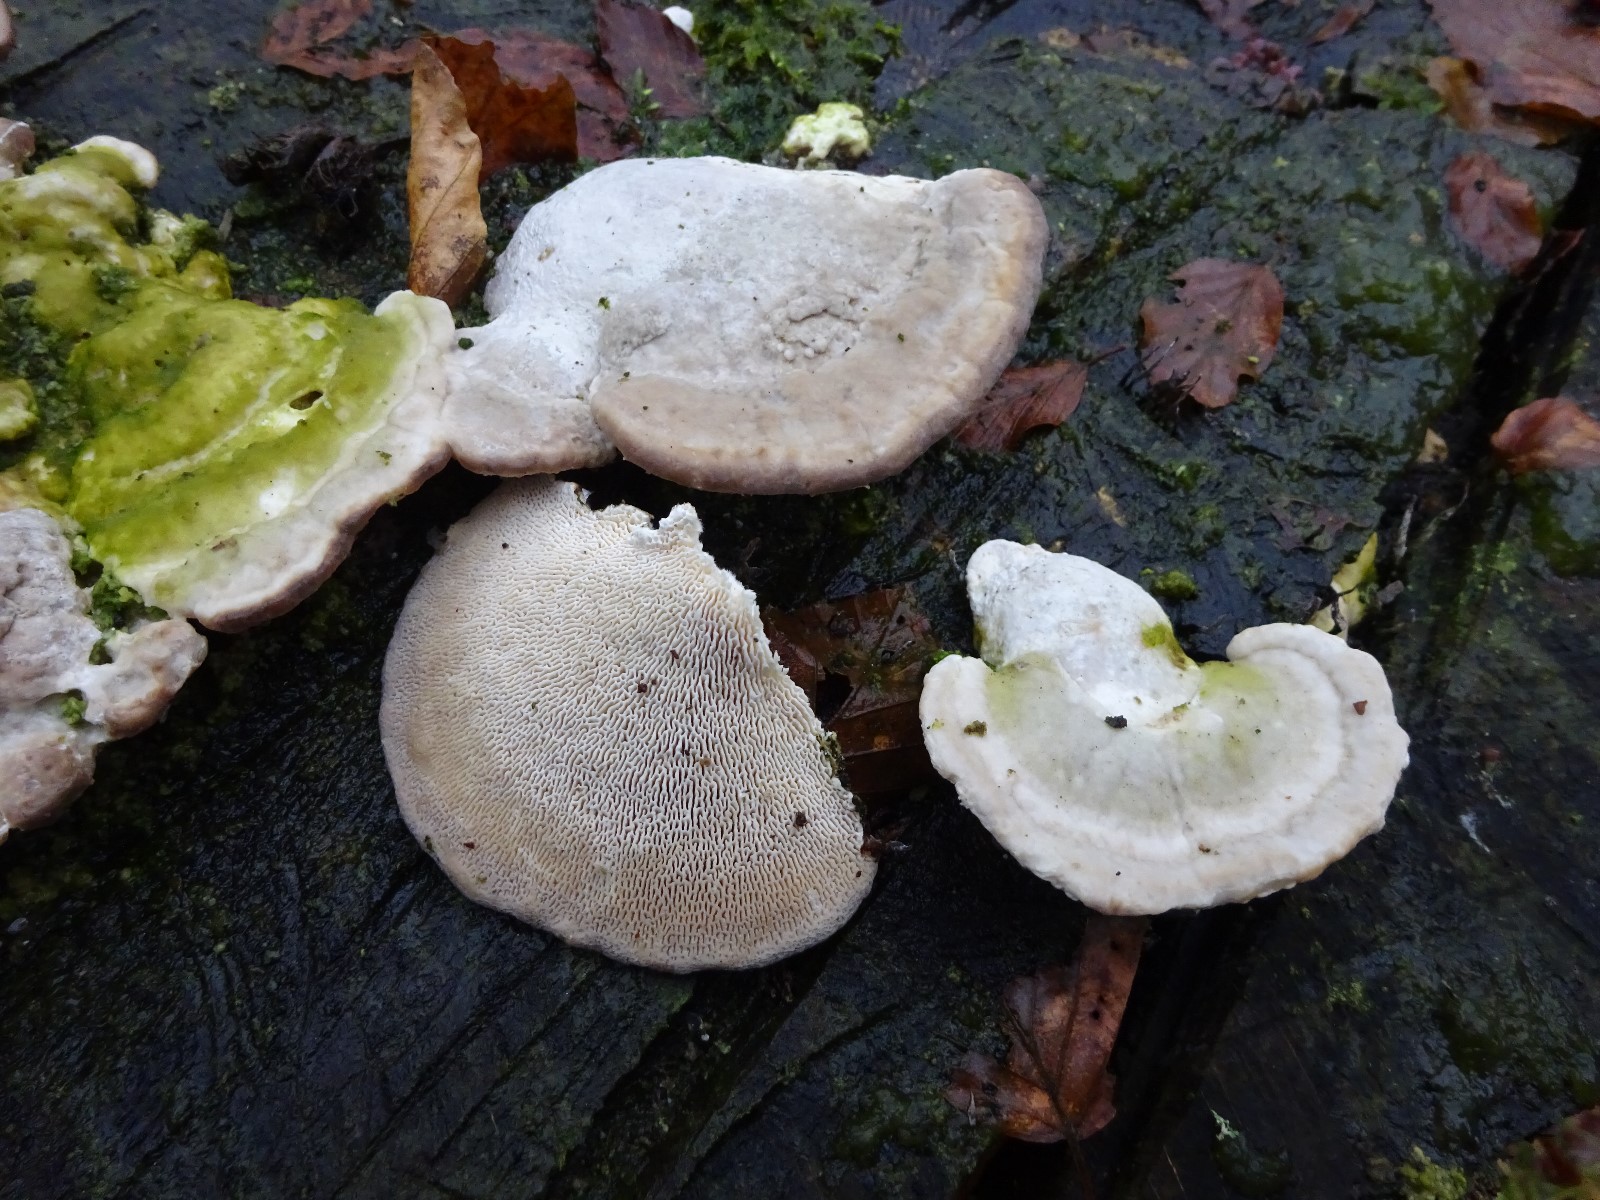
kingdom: Fungi
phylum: Basidiomycota
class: Agaricomycetes
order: Polyporales
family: Polyporaceae
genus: Trametes
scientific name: Trametes gibbosa
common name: puklet læderporesvamp
